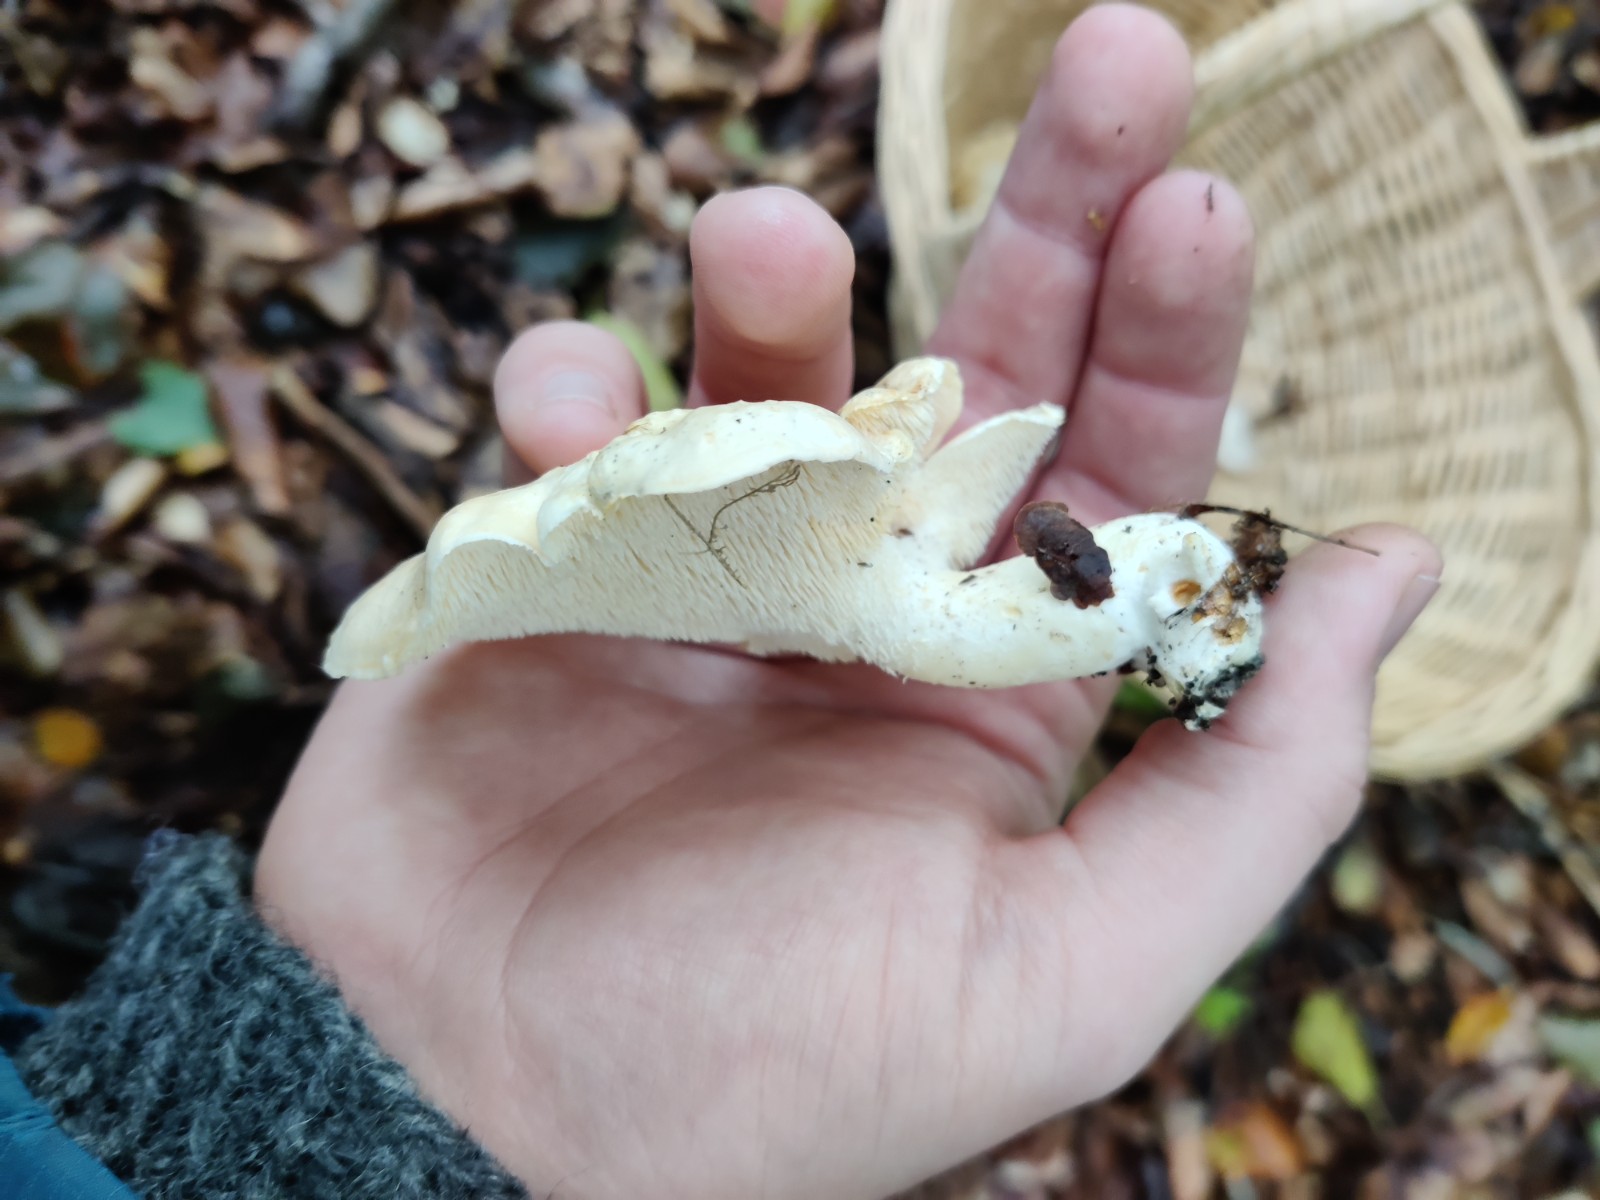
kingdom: Fungi
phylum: Basidiomycota
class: Agaricomycetes
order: Cantharellales
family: Hydnaceae
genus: Hydnum
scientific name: Hydnum repandum
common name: almindelig pigsvamp
